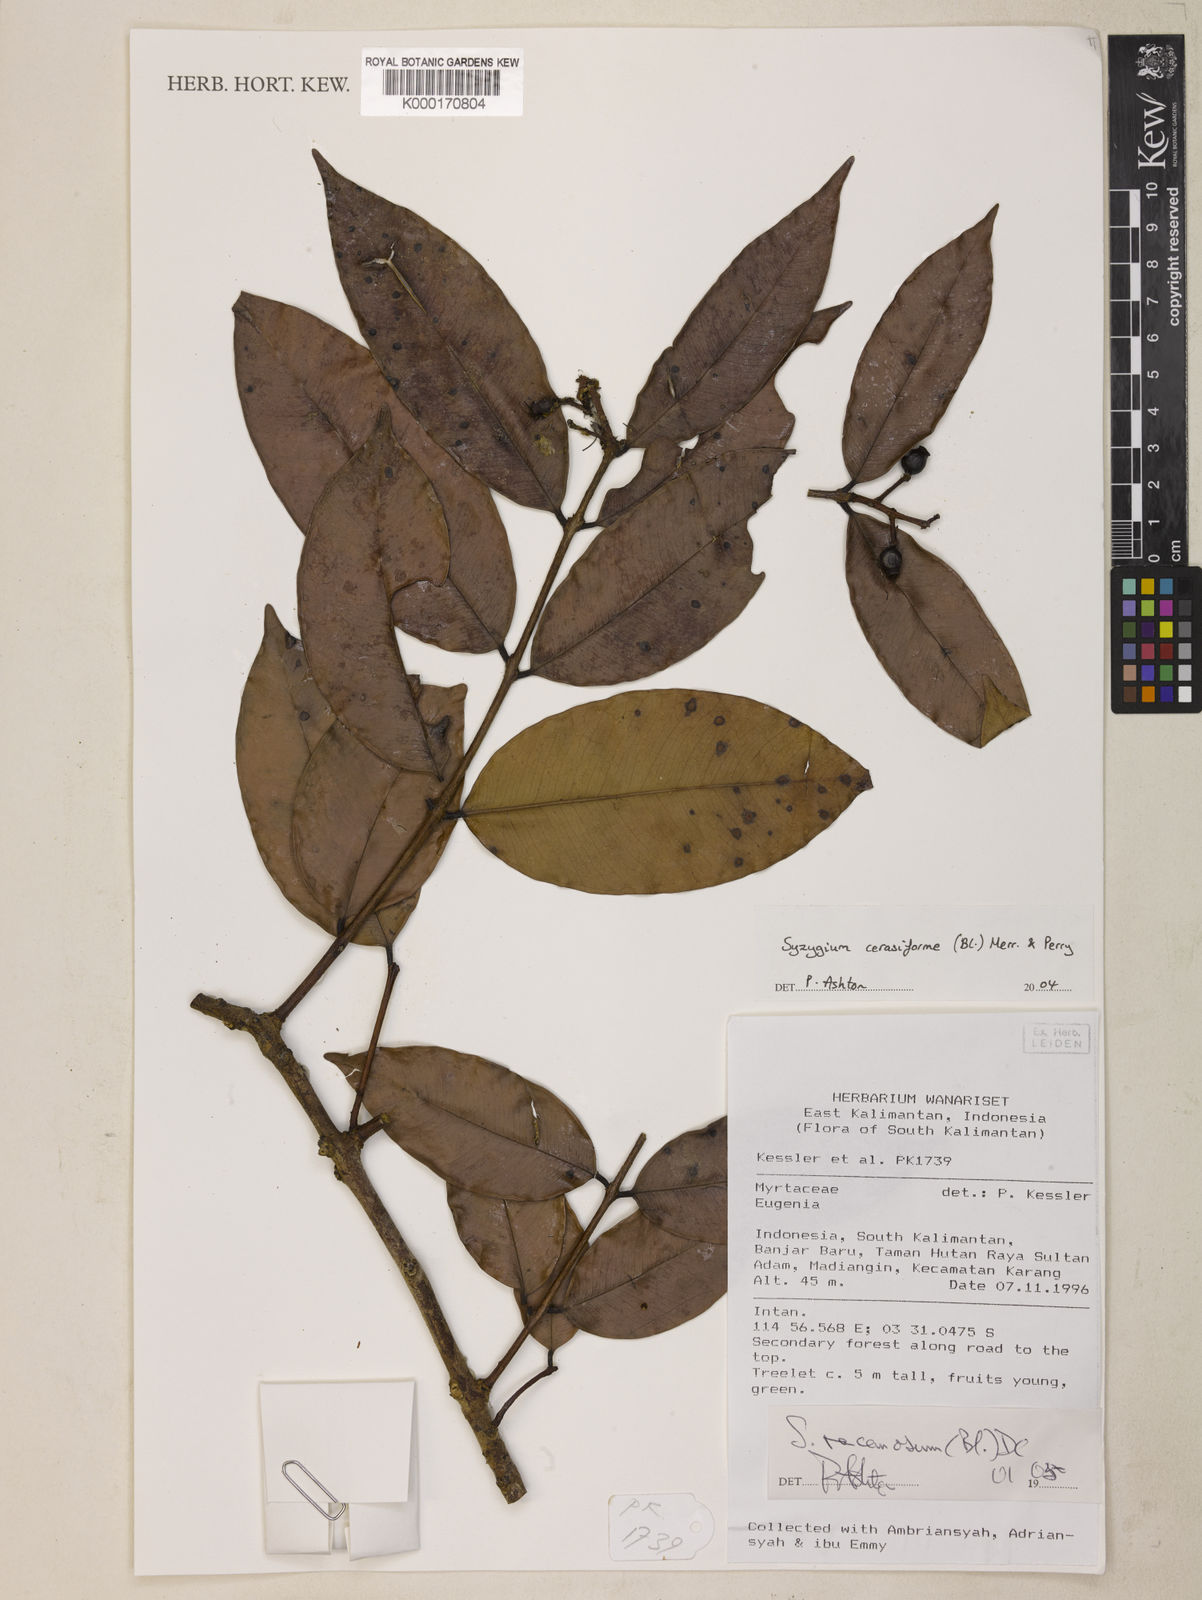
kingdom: Plantae
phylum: Tracheophyta
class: Magnoliopsida
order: Myrtales
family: Myrtaceae
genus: Syzygium
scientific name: Syzygium racemosum
